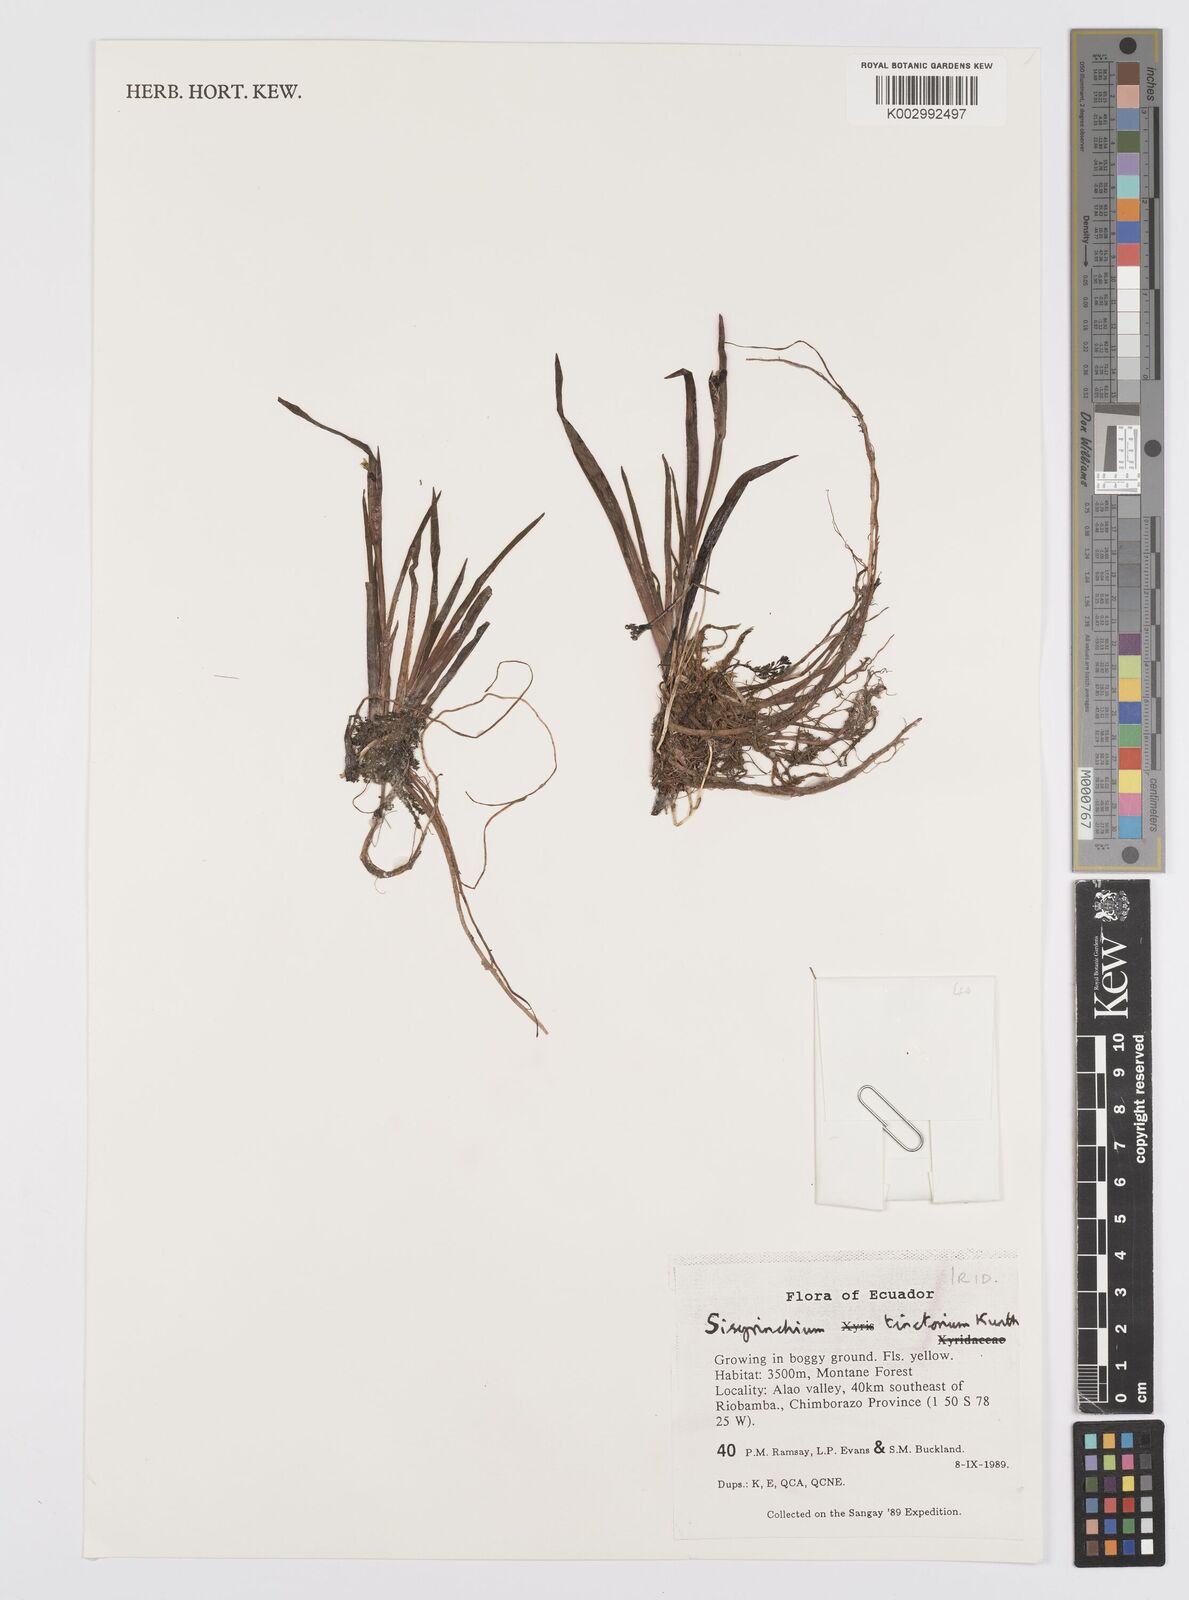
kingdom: Plantae
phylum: Tracheophyta
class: Liliopsida
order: Asparagales
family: Iridaceae
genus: Sisyrinchium
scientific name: Sisyrinchium tinctorium
